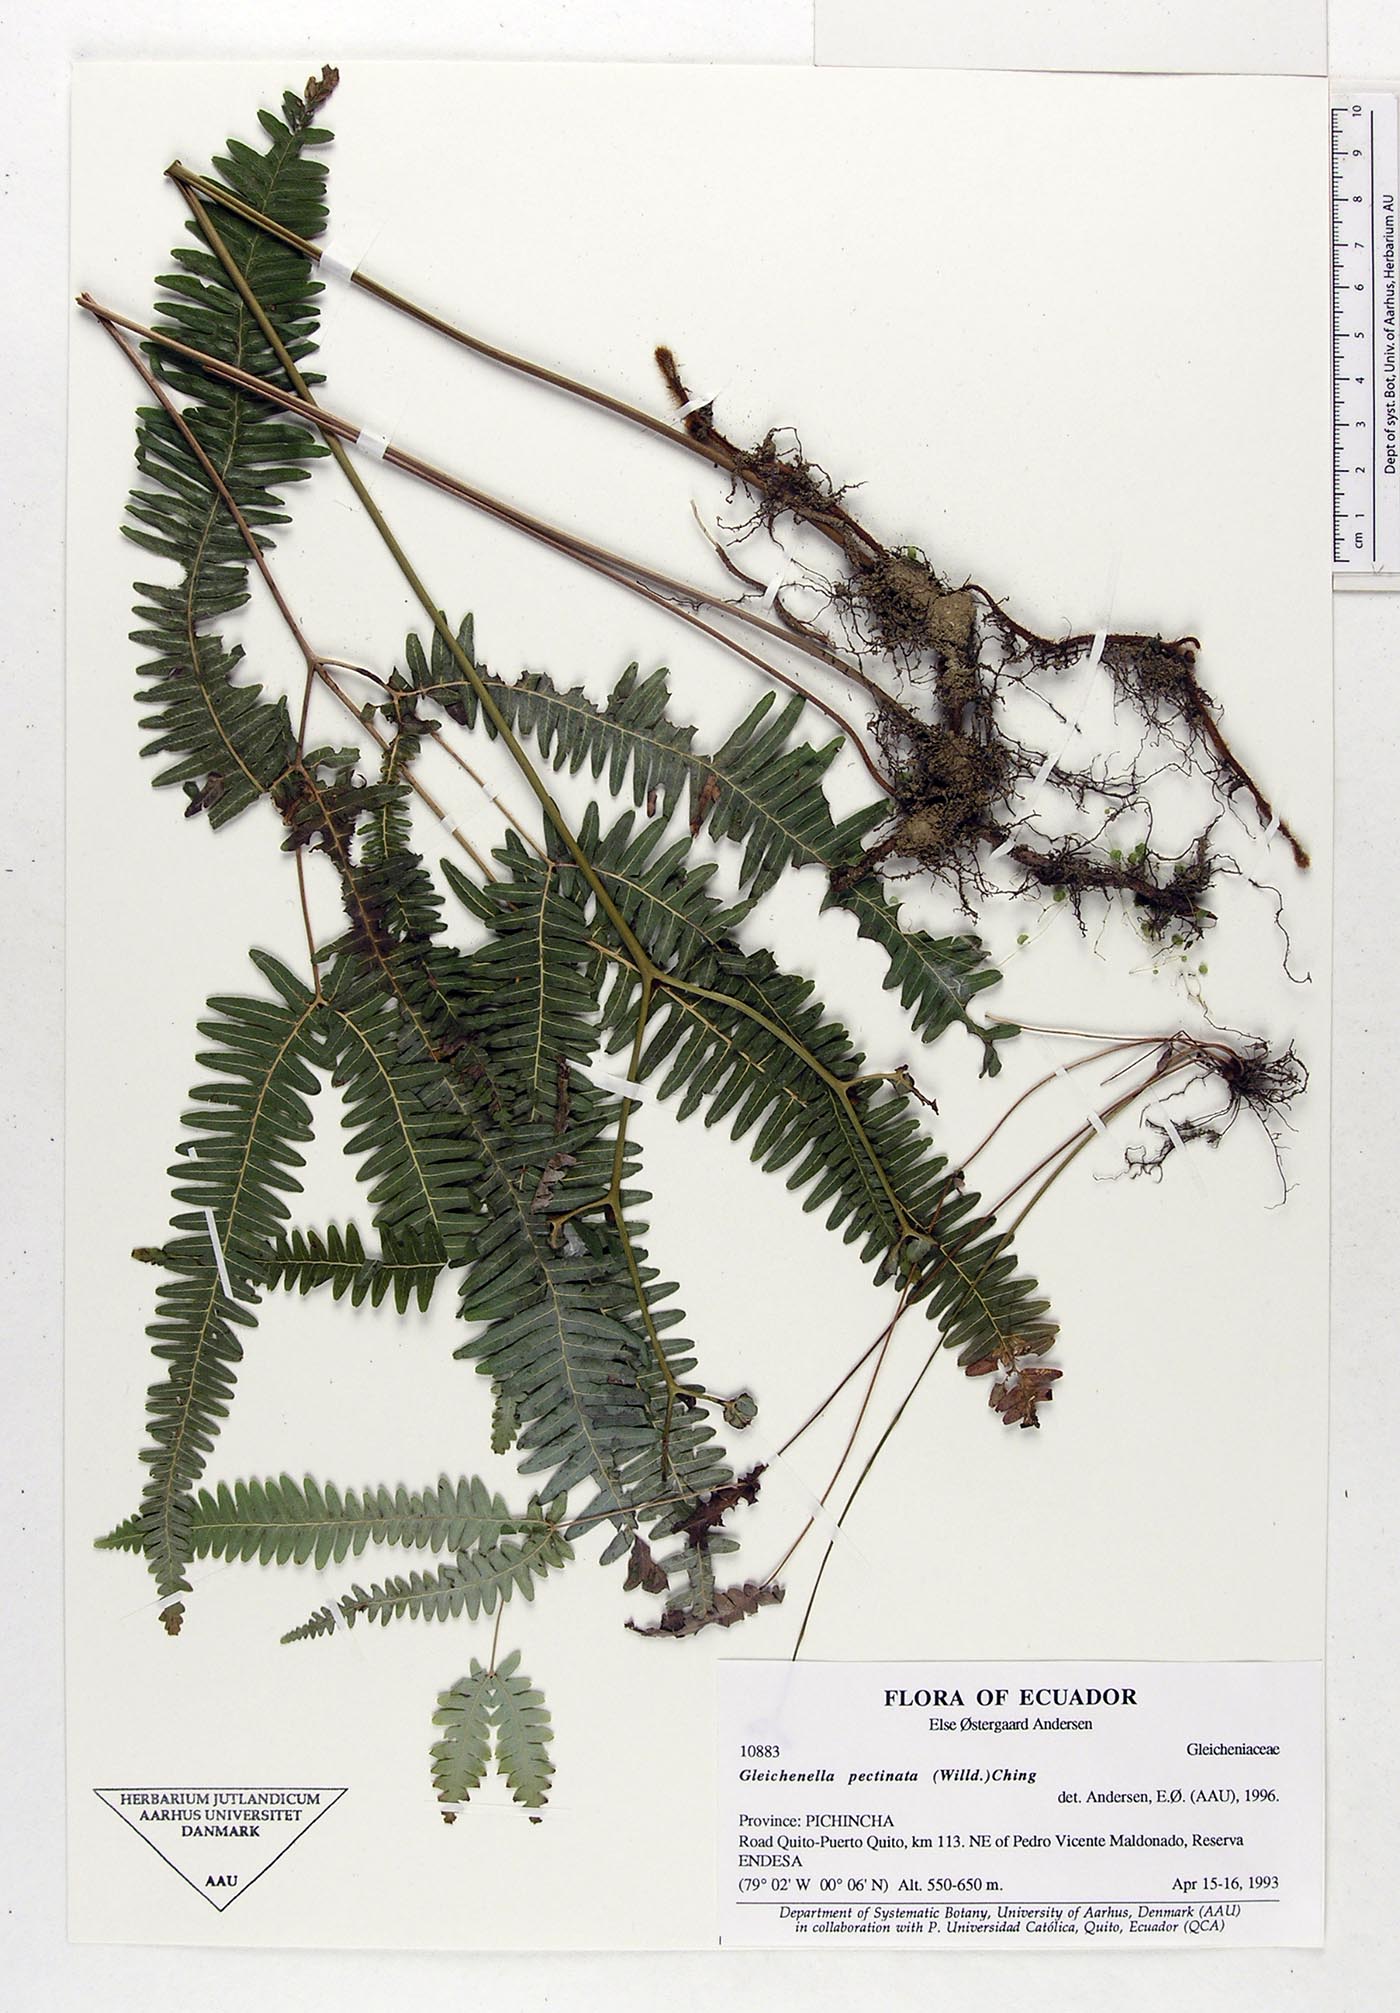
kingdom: Plantae
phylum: Tracheophyta
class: Polypodiopsida
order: Gleicheniales
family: Gleicheniaceae
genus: Gleichenella
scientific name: Gleichenella pectinata
